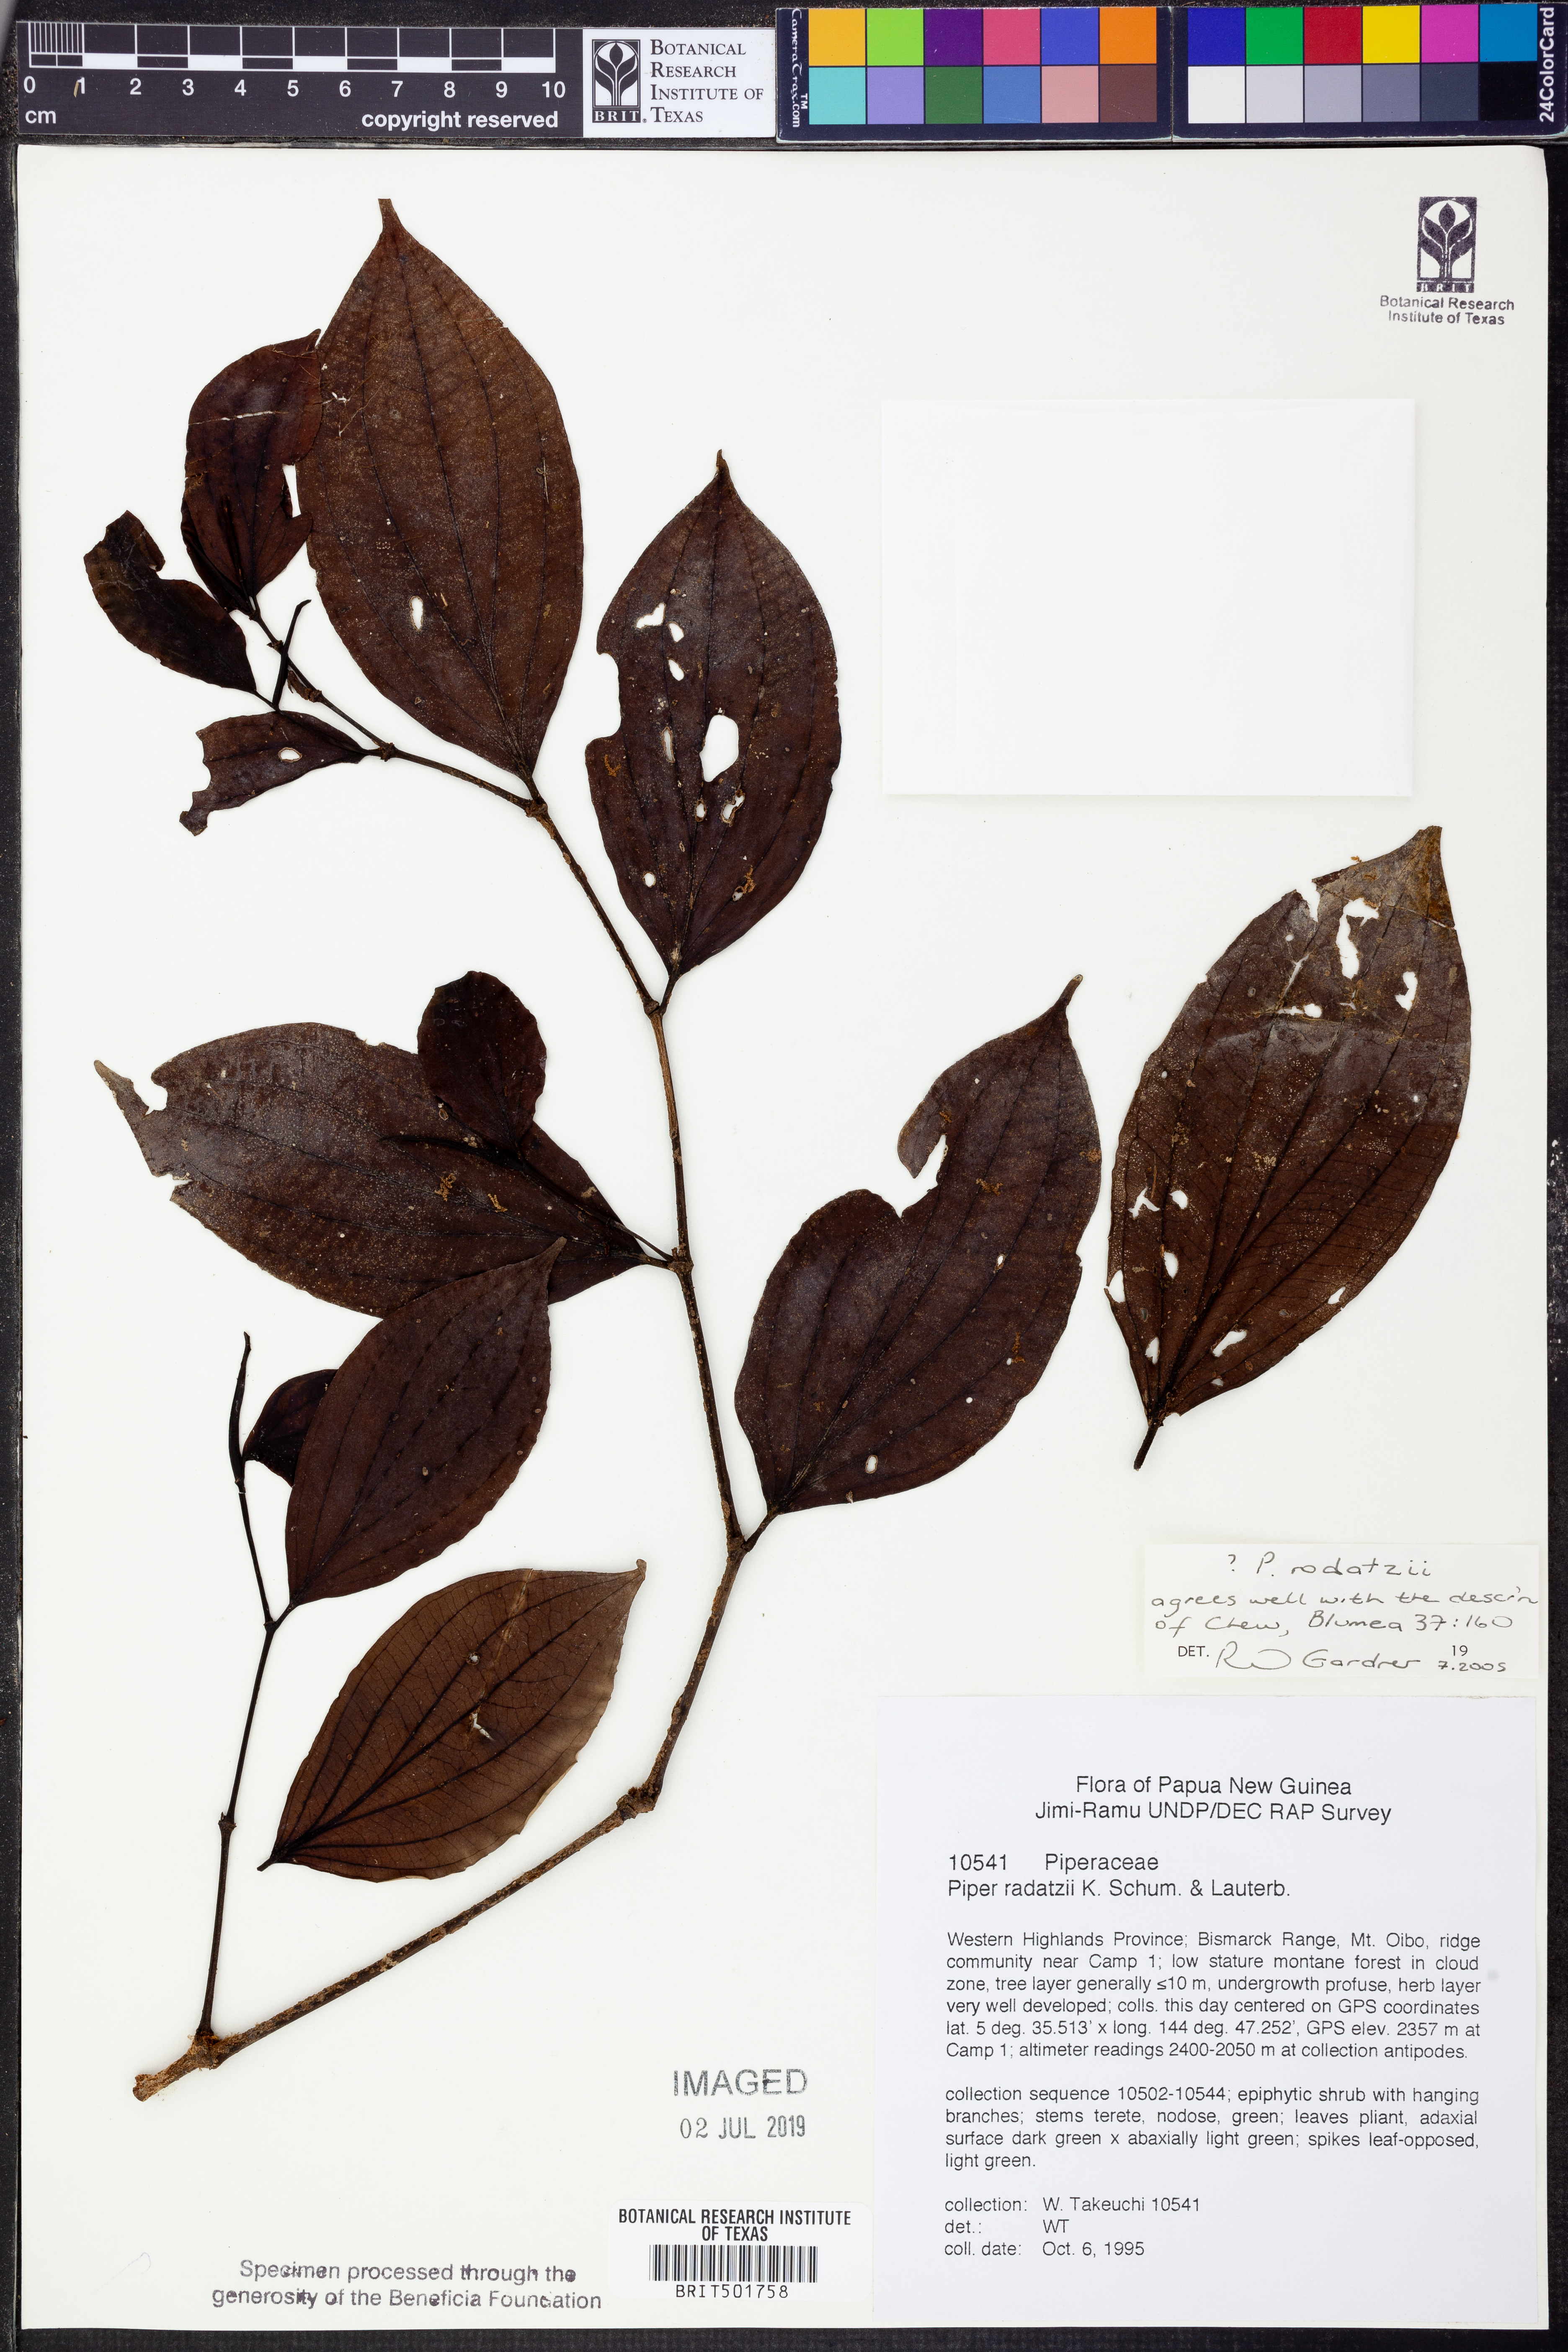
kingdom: Plantae
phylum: Tracheophyta
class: Magnoliopsida
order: Piperales
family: Piperaceae
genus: Piper
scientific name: Piper macropiper
